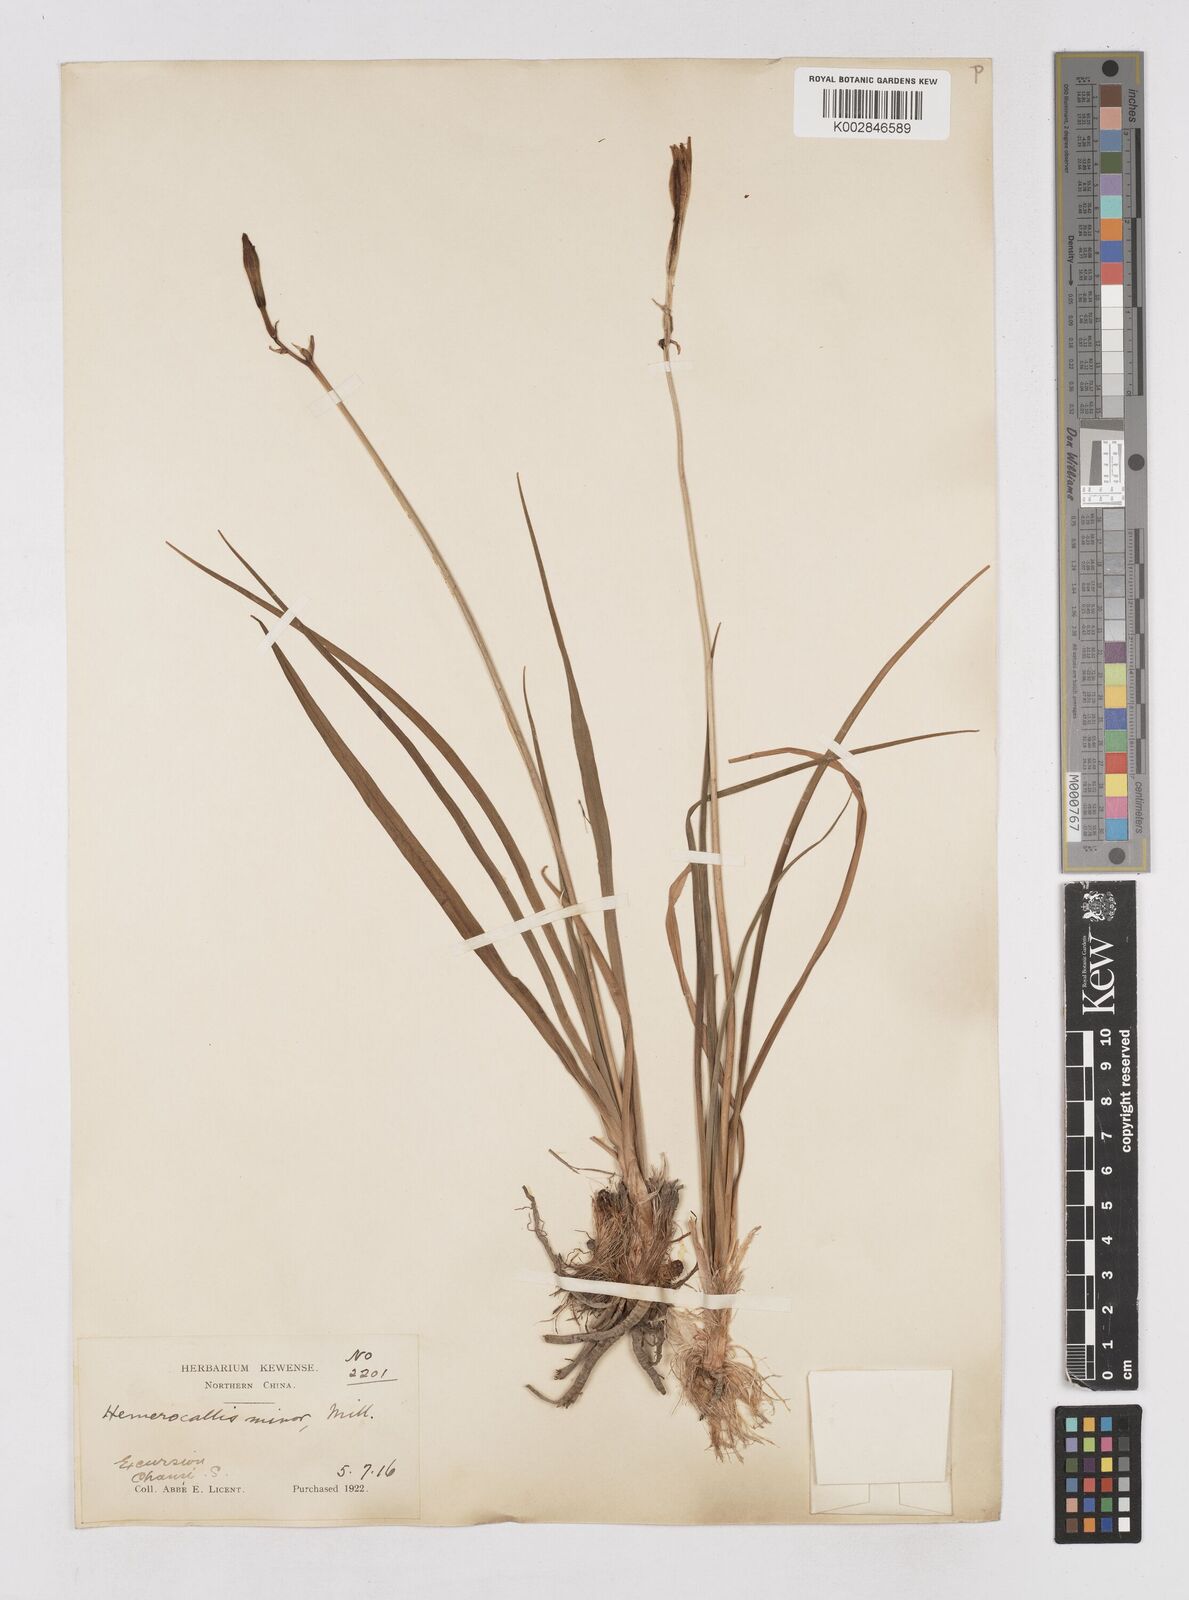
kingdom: Plantae
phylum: Tracheophyta
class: Liliopsida
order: Asparagales
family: Asphodelaceae
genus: Hemerocallis
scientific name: Hemerocallis minor
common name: Small daylily
